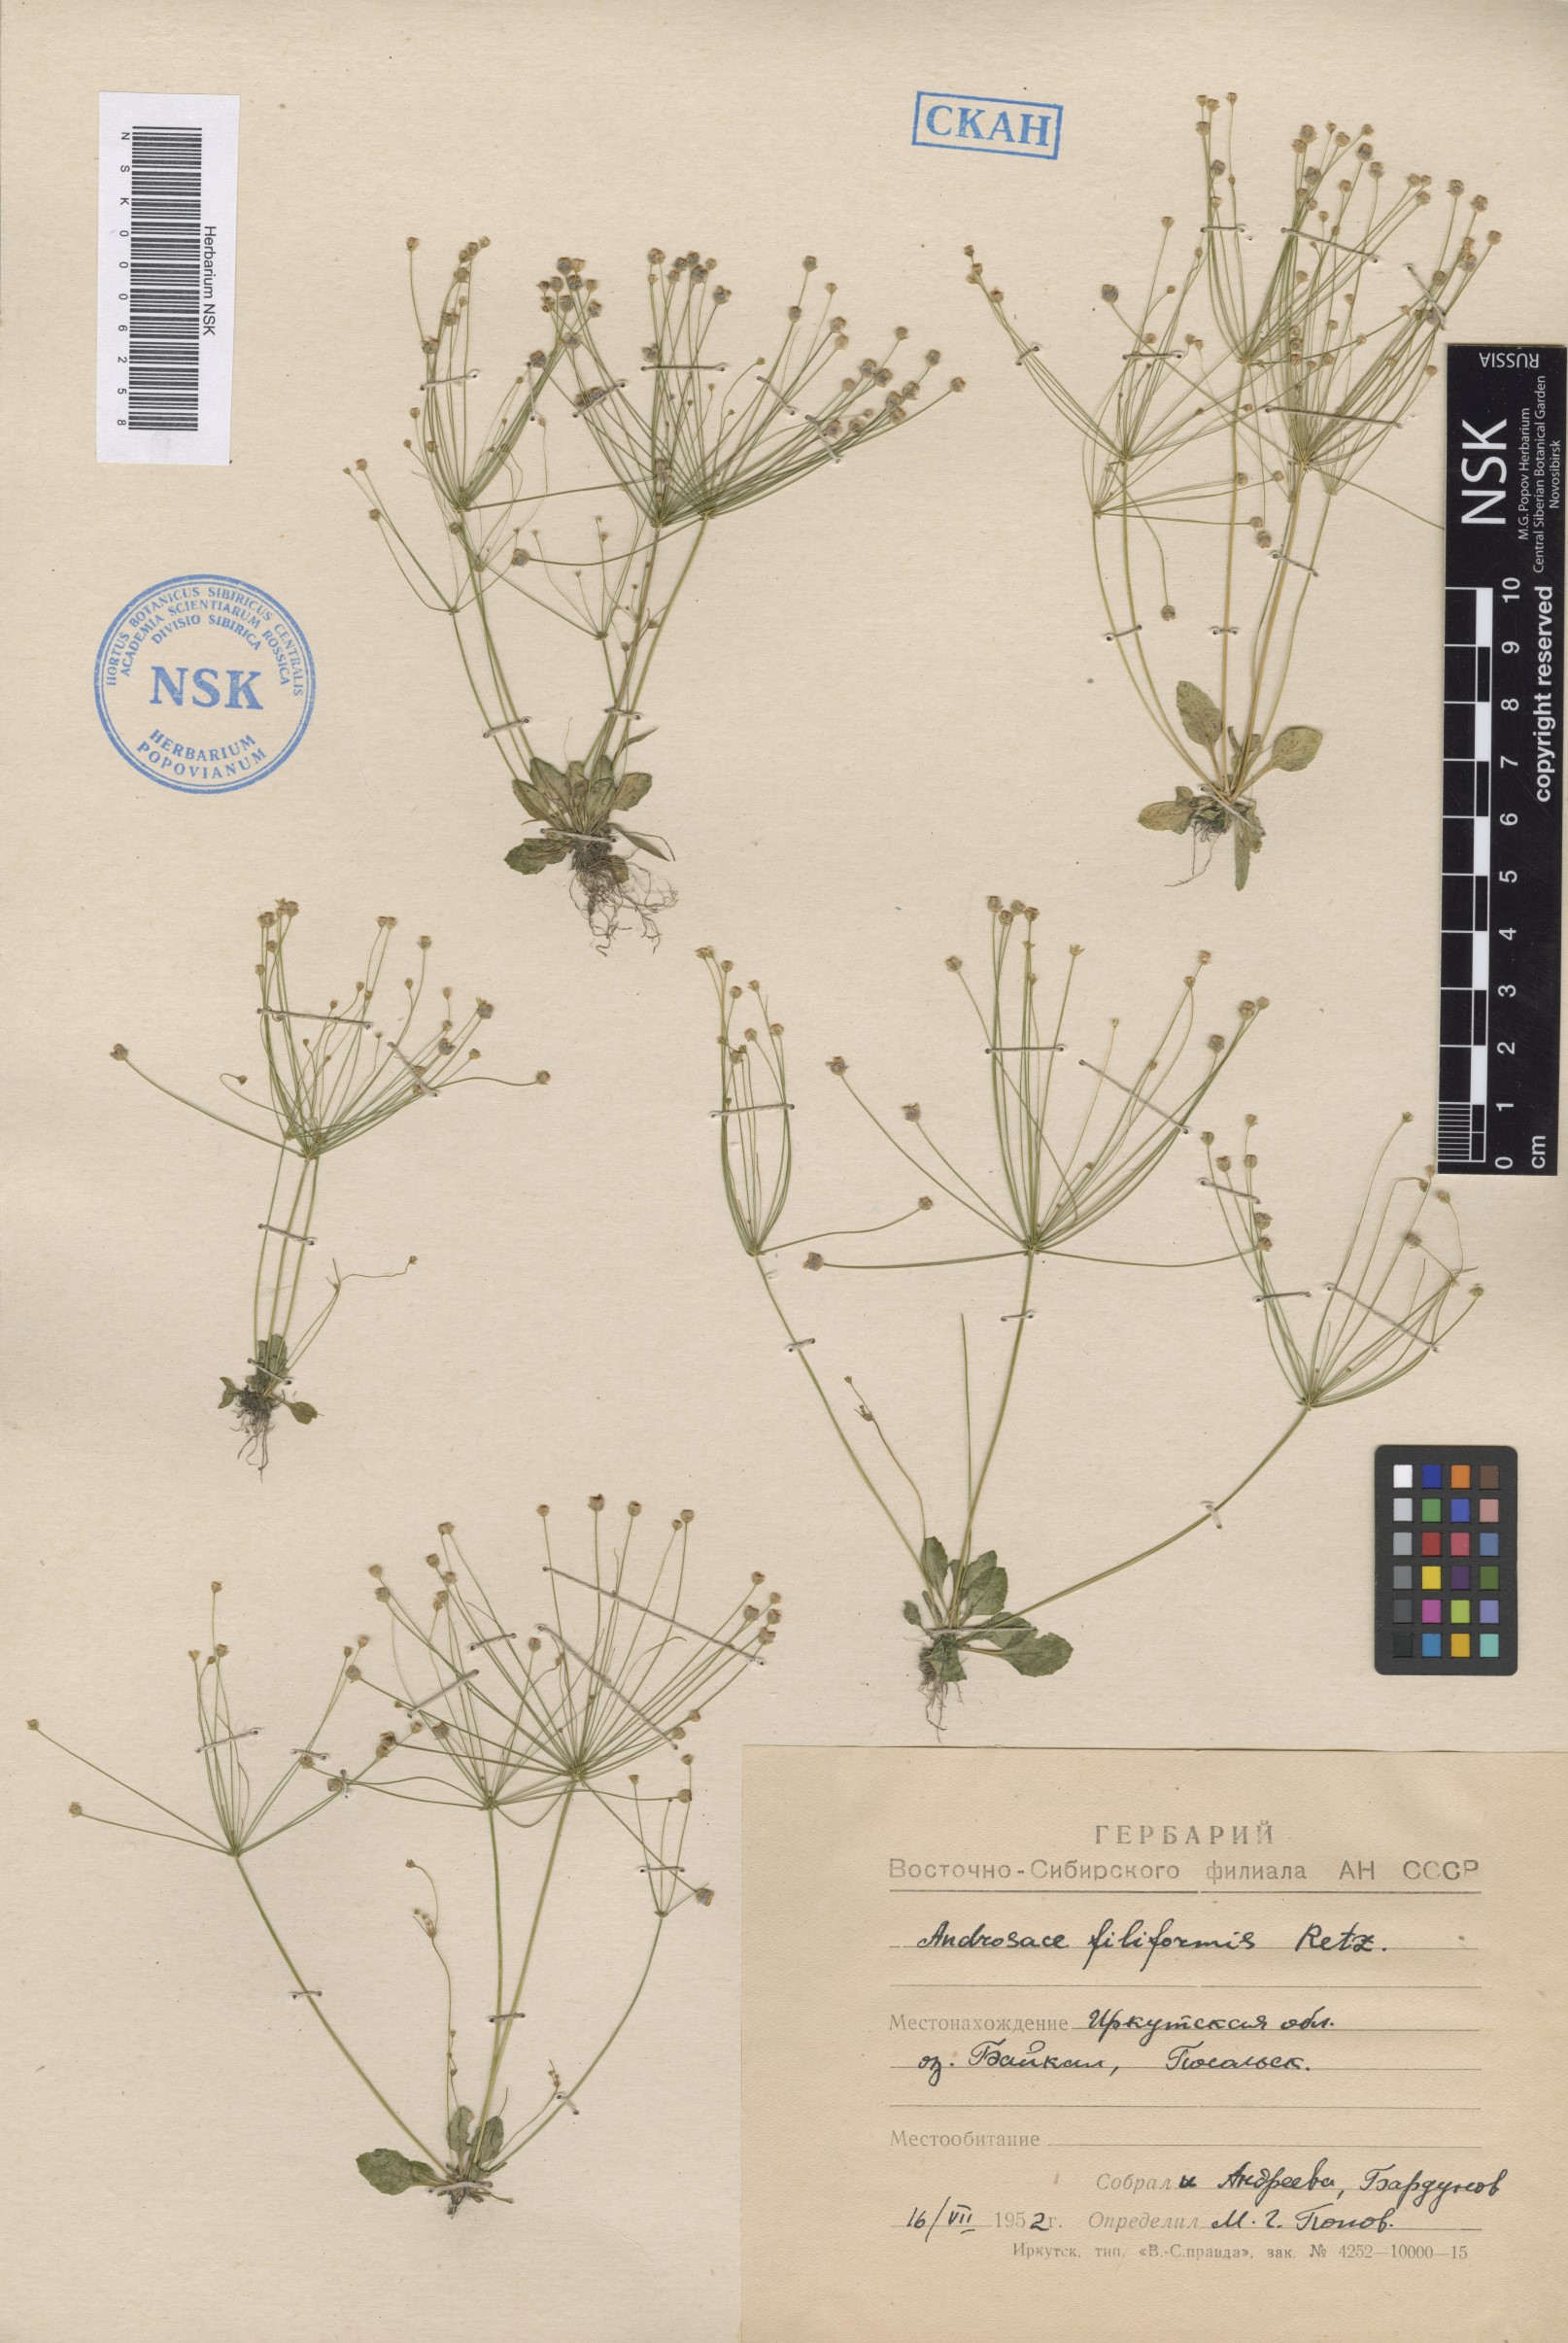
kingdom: Plantae
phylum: Tracheophyta
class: Magnoliopsida
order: Ericales
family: Primulaceae
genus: Androsace
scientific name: Androsace filiformis
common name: Filiform rock jasmine
